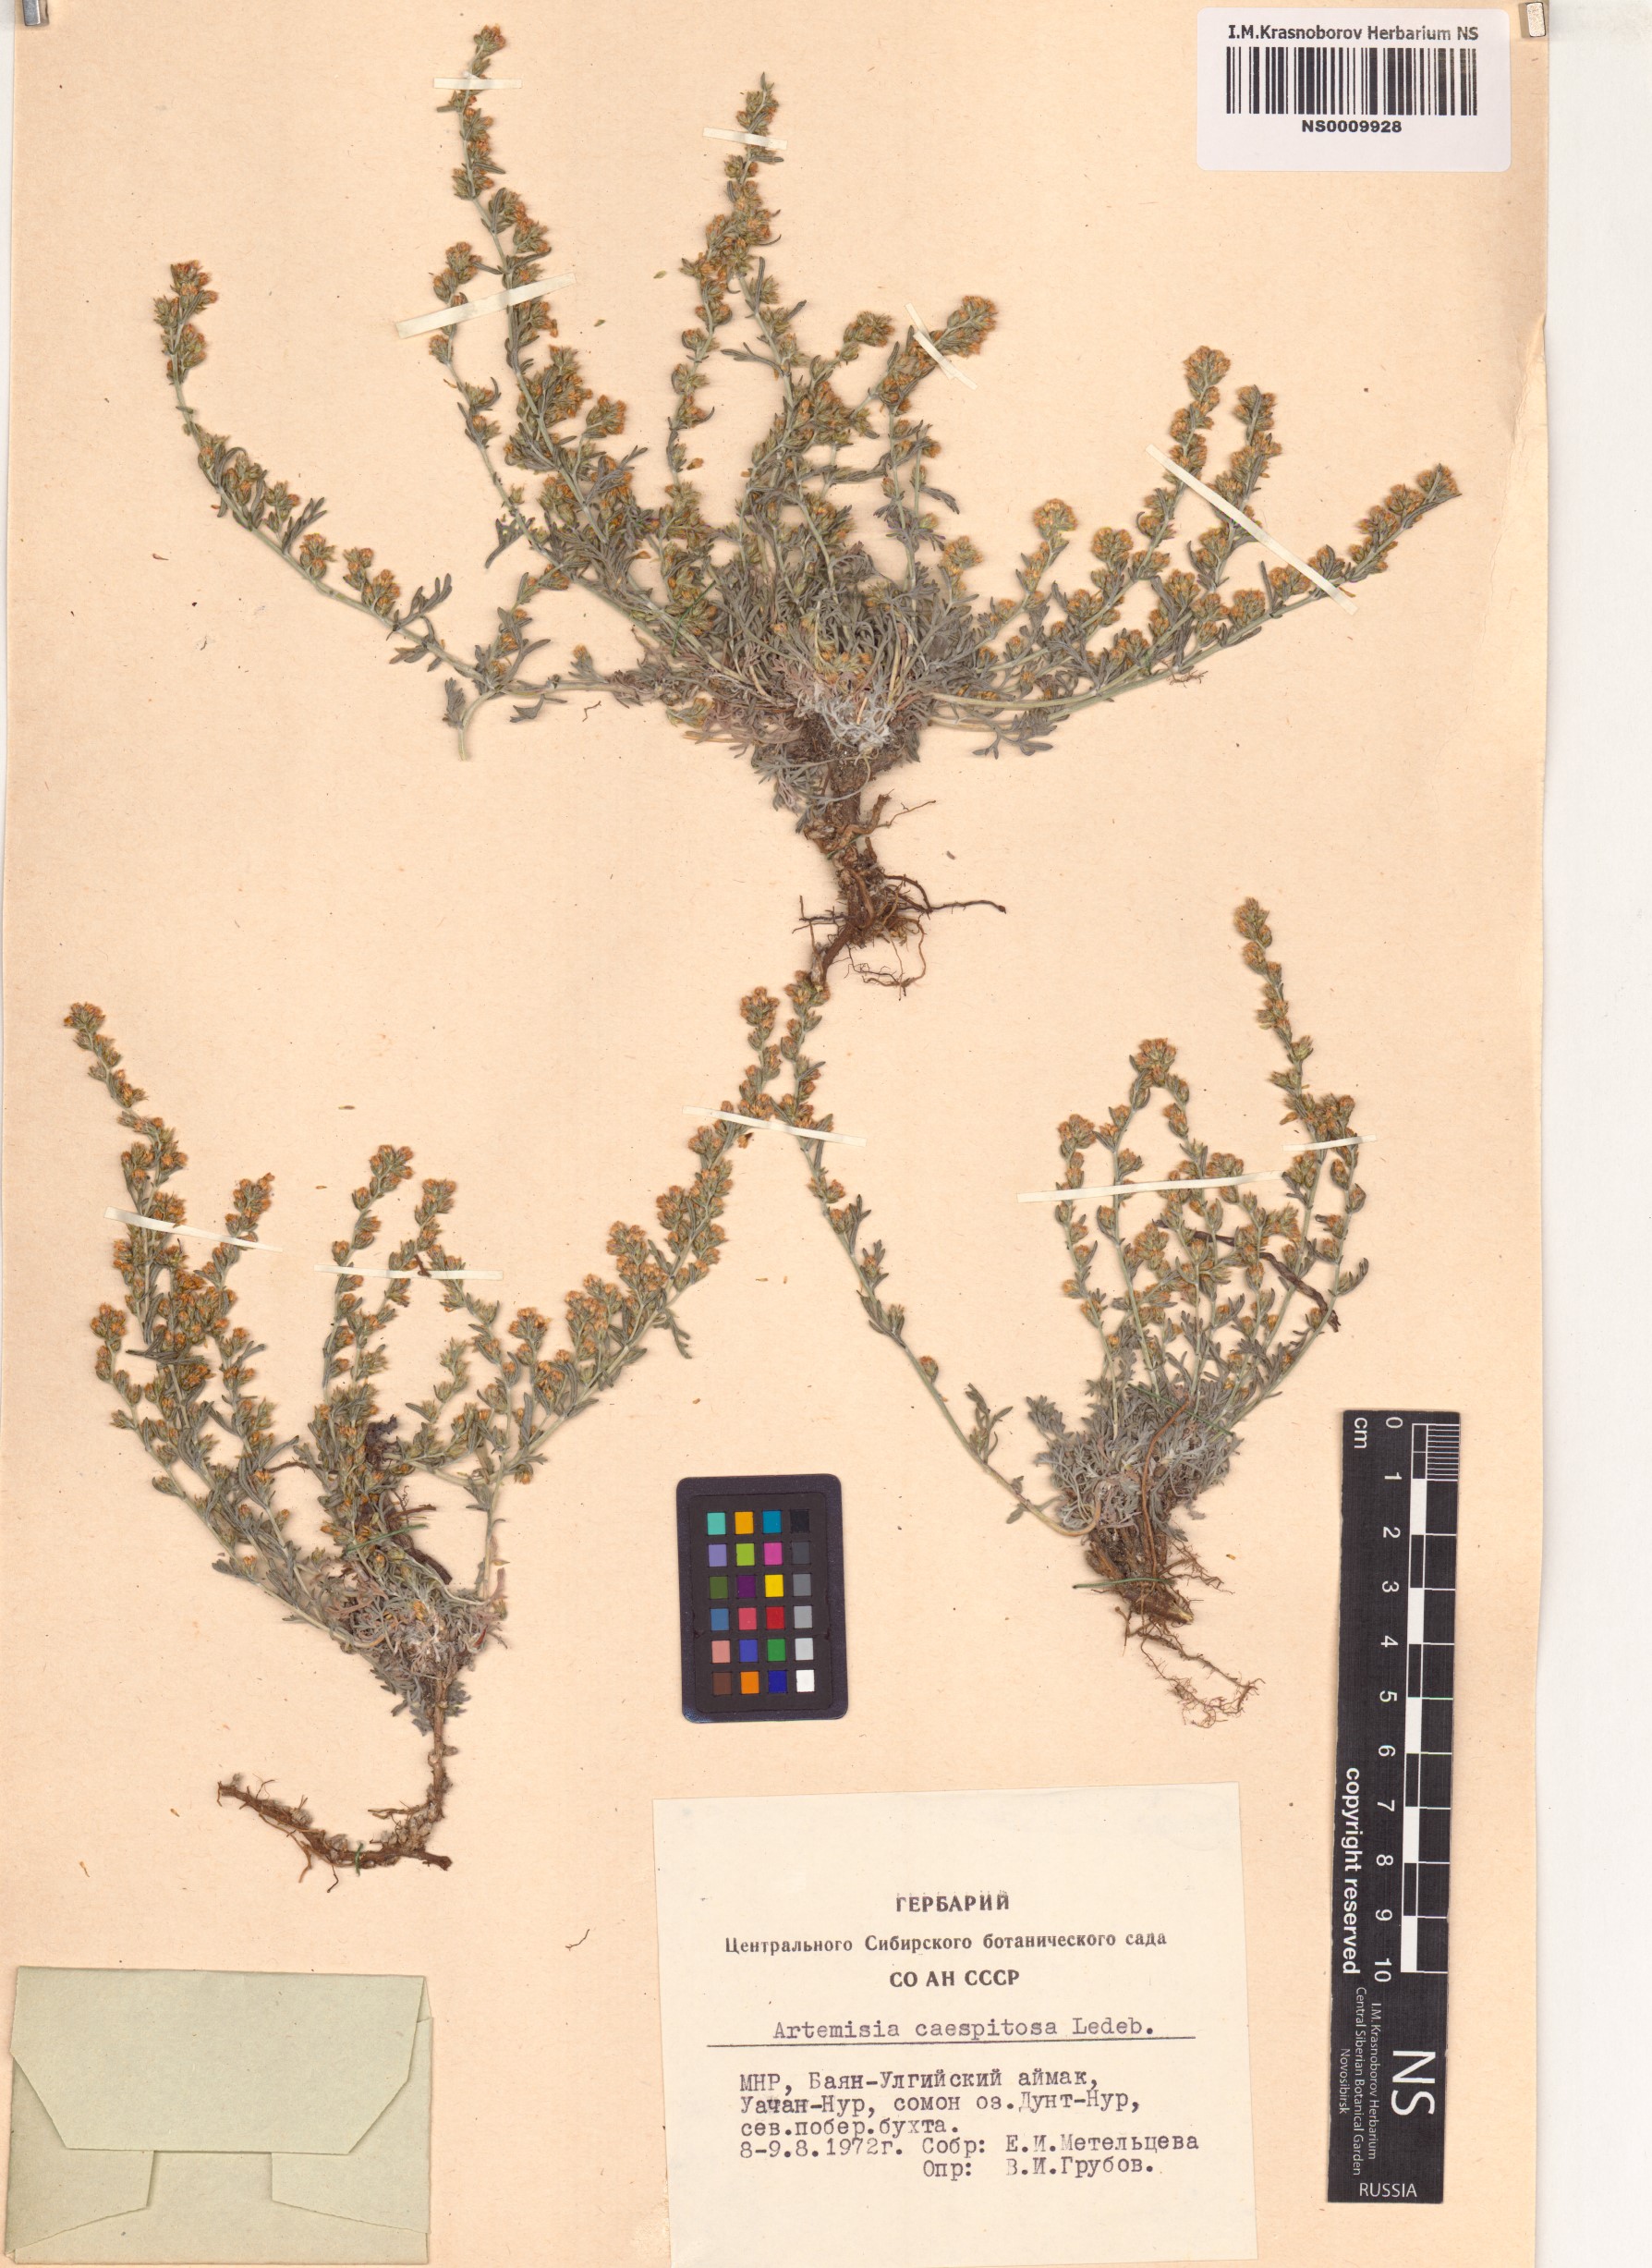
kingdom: Plantae
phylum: Tracheophyta
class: Magnoliopsida
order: Asterales
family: Asteraceae
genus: Artemisia
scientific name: Artemisia caespitosa
